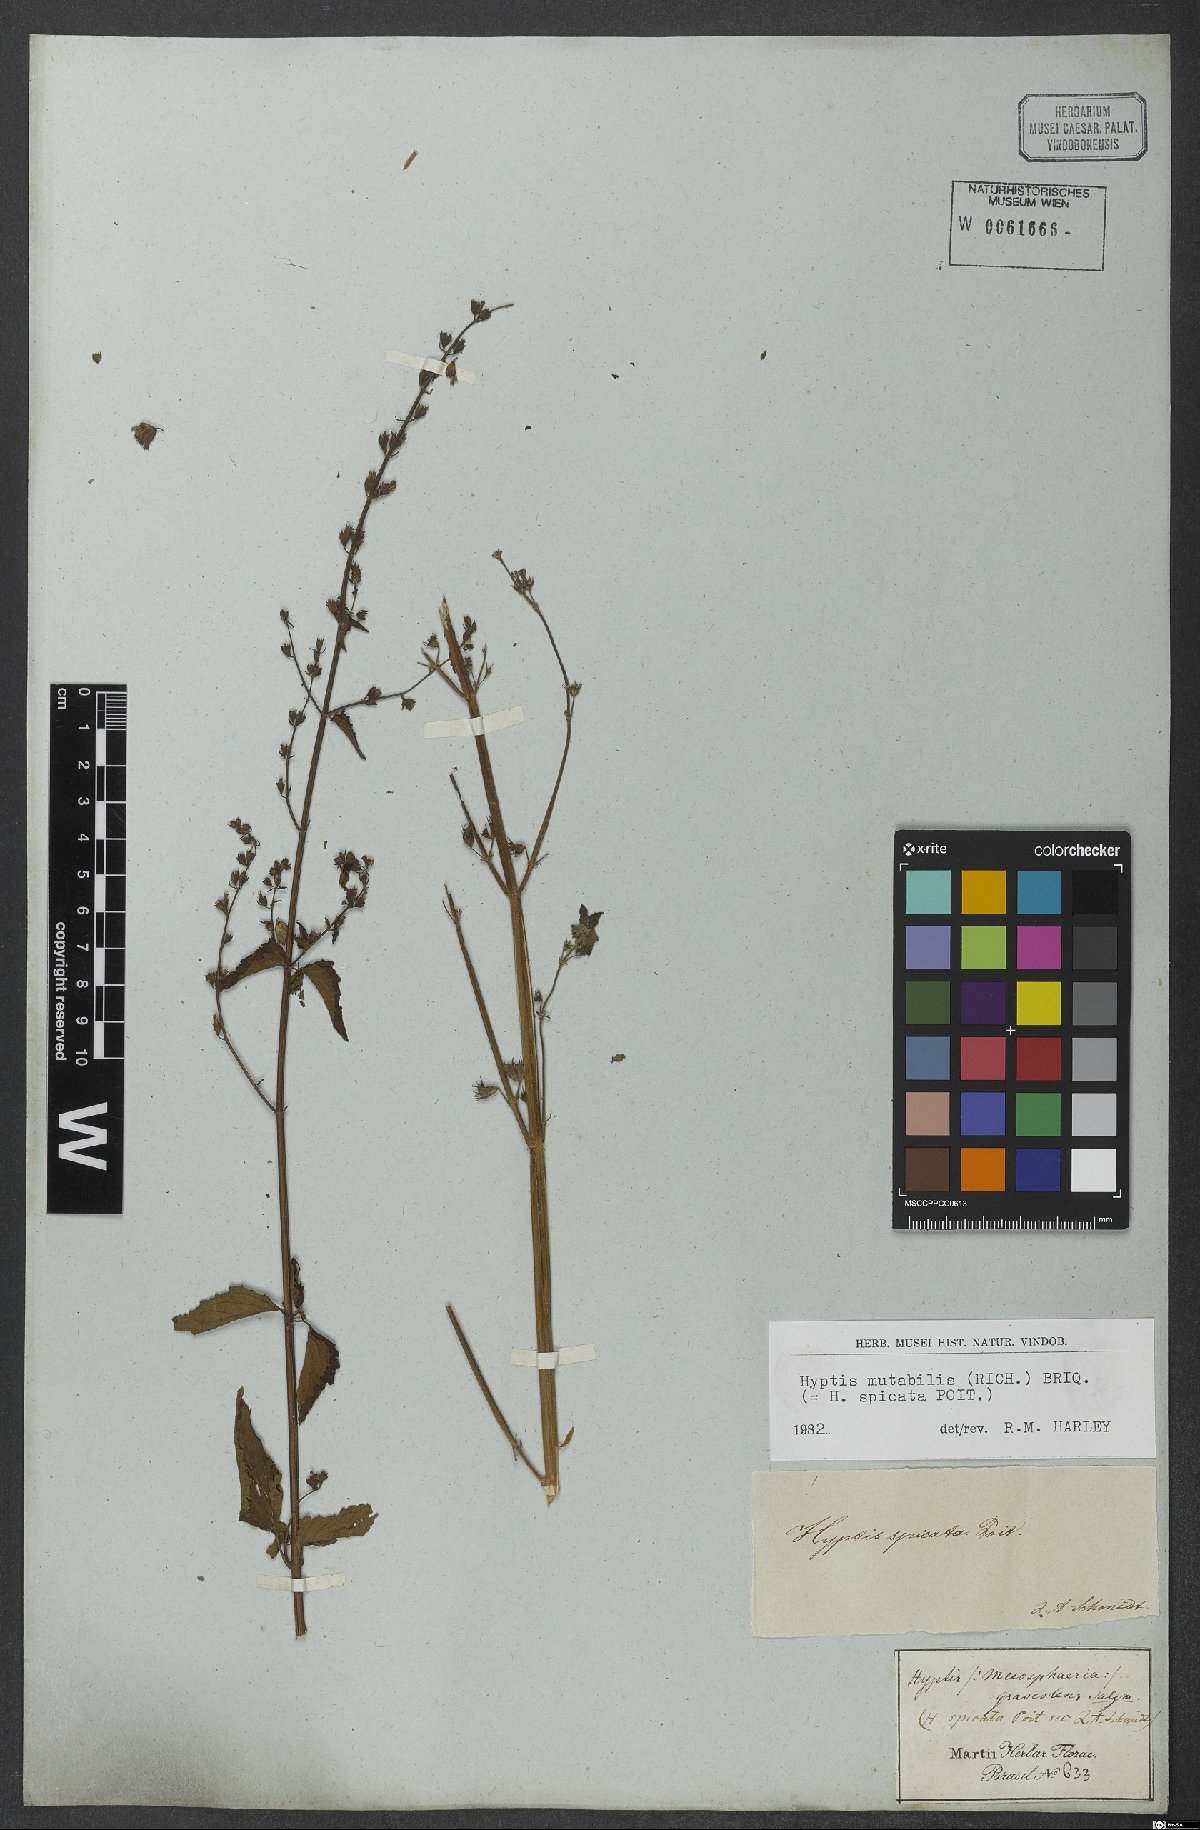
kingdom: Plantae
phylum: Tracheophyta
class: Magnoliopsida
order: Lamiales
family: Lamiaceae
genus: Cantinoa
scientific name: Cantinoa mutabilis
